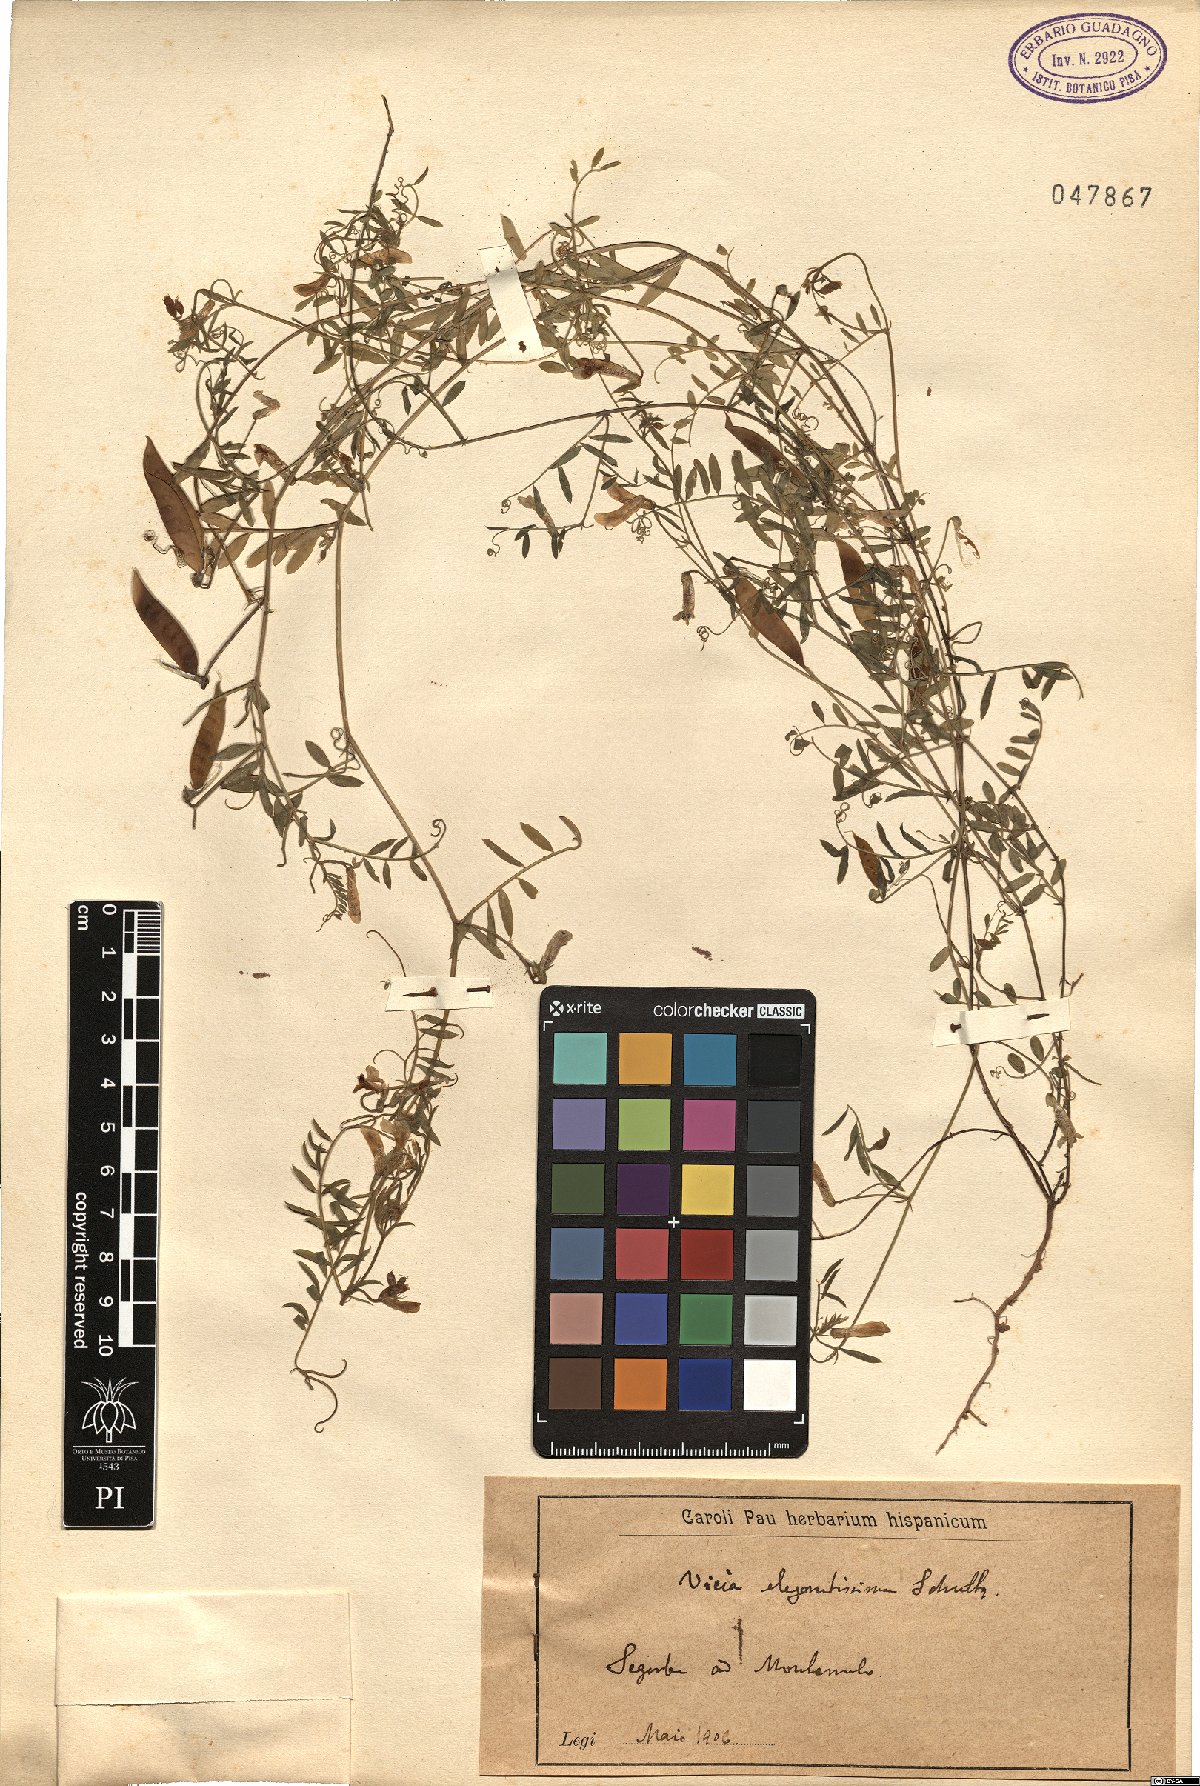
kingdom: Plantae
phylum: Tracheophyta
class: Magnoliopsida
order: Fabales
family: Fabaceae
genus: Vicia
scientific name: Vicia villosa
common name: Fodder vetch
